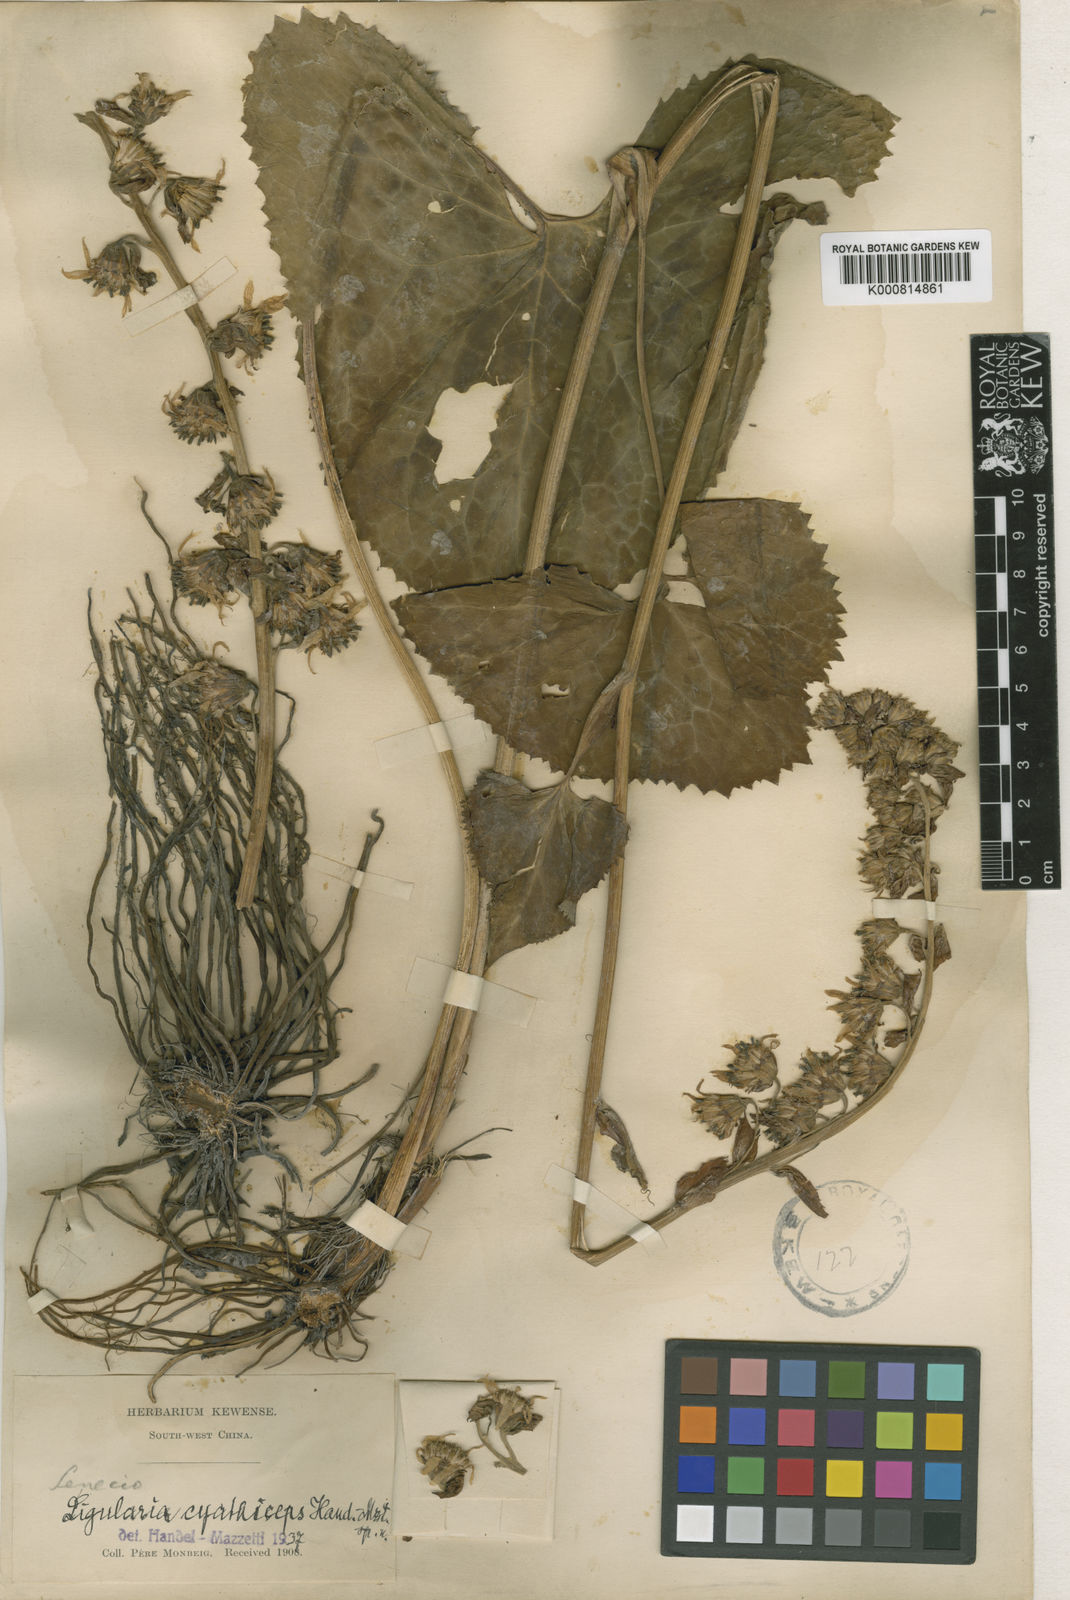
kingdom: Plantae
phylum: Tracheophyta
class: Magnoliopsida
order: Asterales
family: Asteraceae
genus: Ligularia
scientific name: Ligularia cyathiceps
